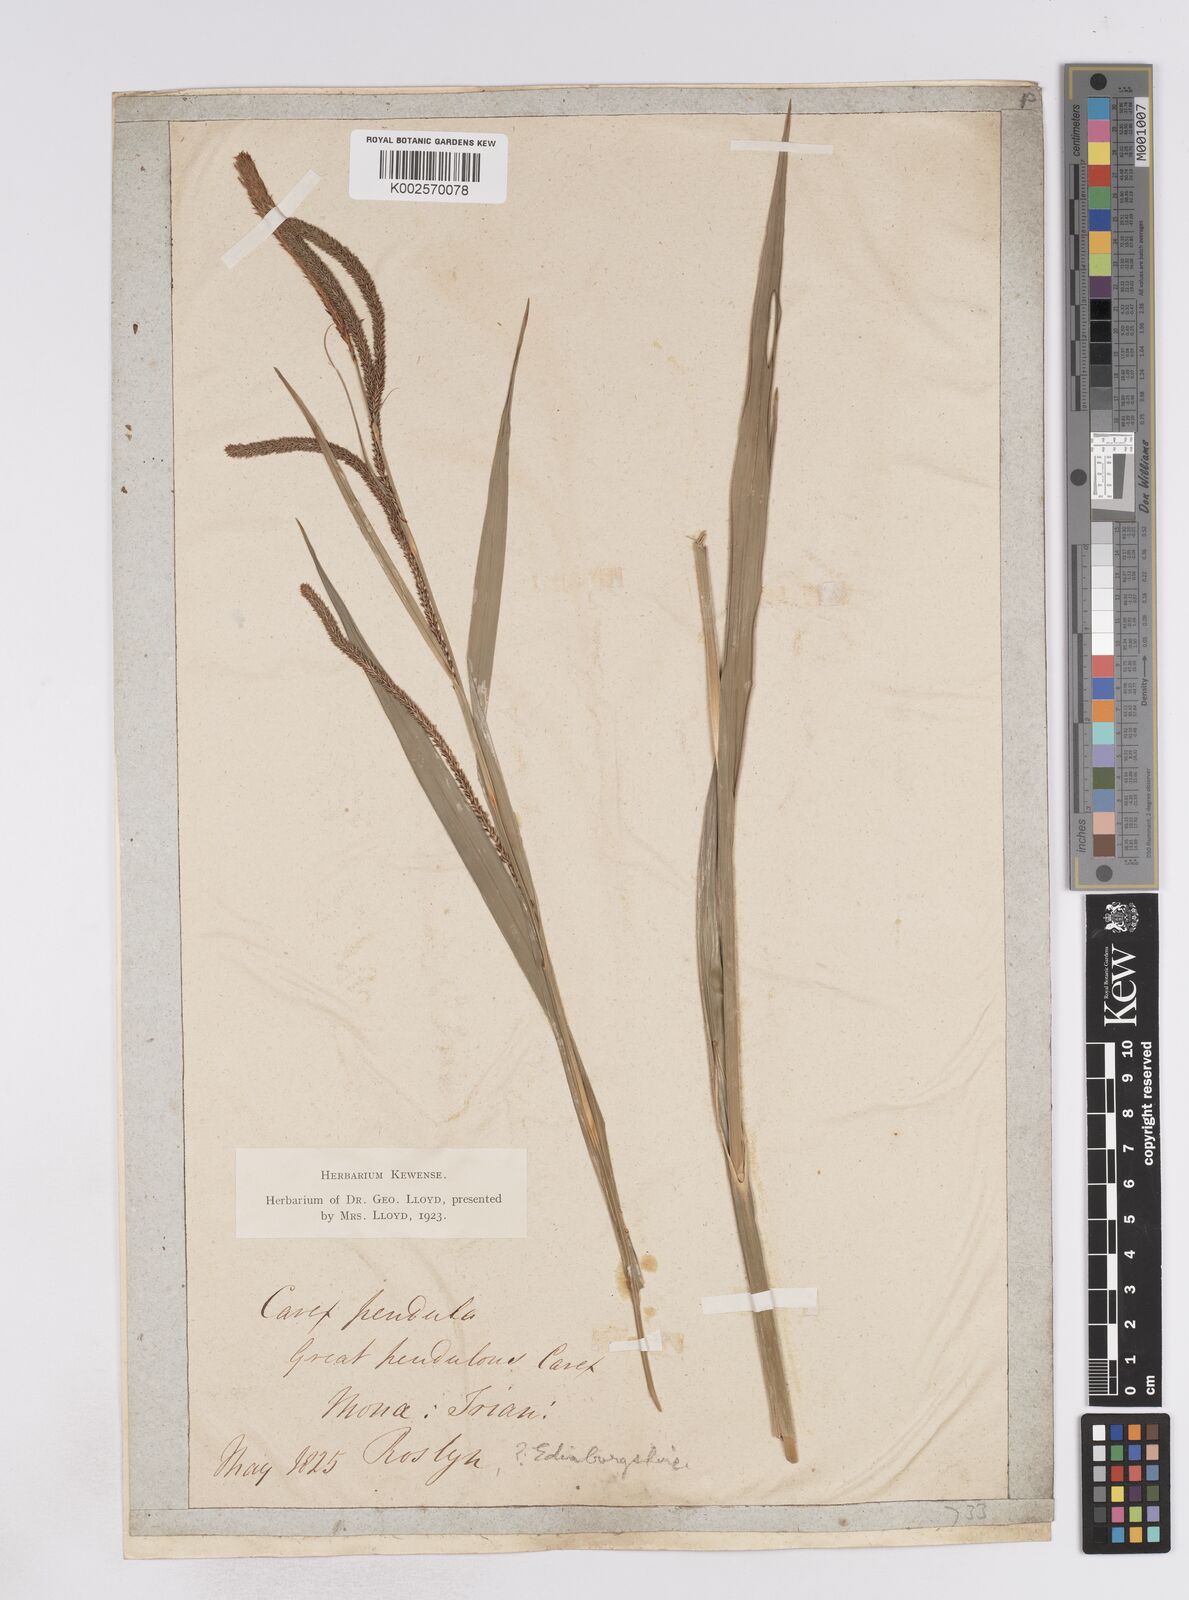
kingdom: Plantae
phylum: Tracheophyta
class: Liliopsida
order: Poales
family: Cyperaceae
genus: Carex
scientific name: Carex pendula
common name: Pendulous sedge
